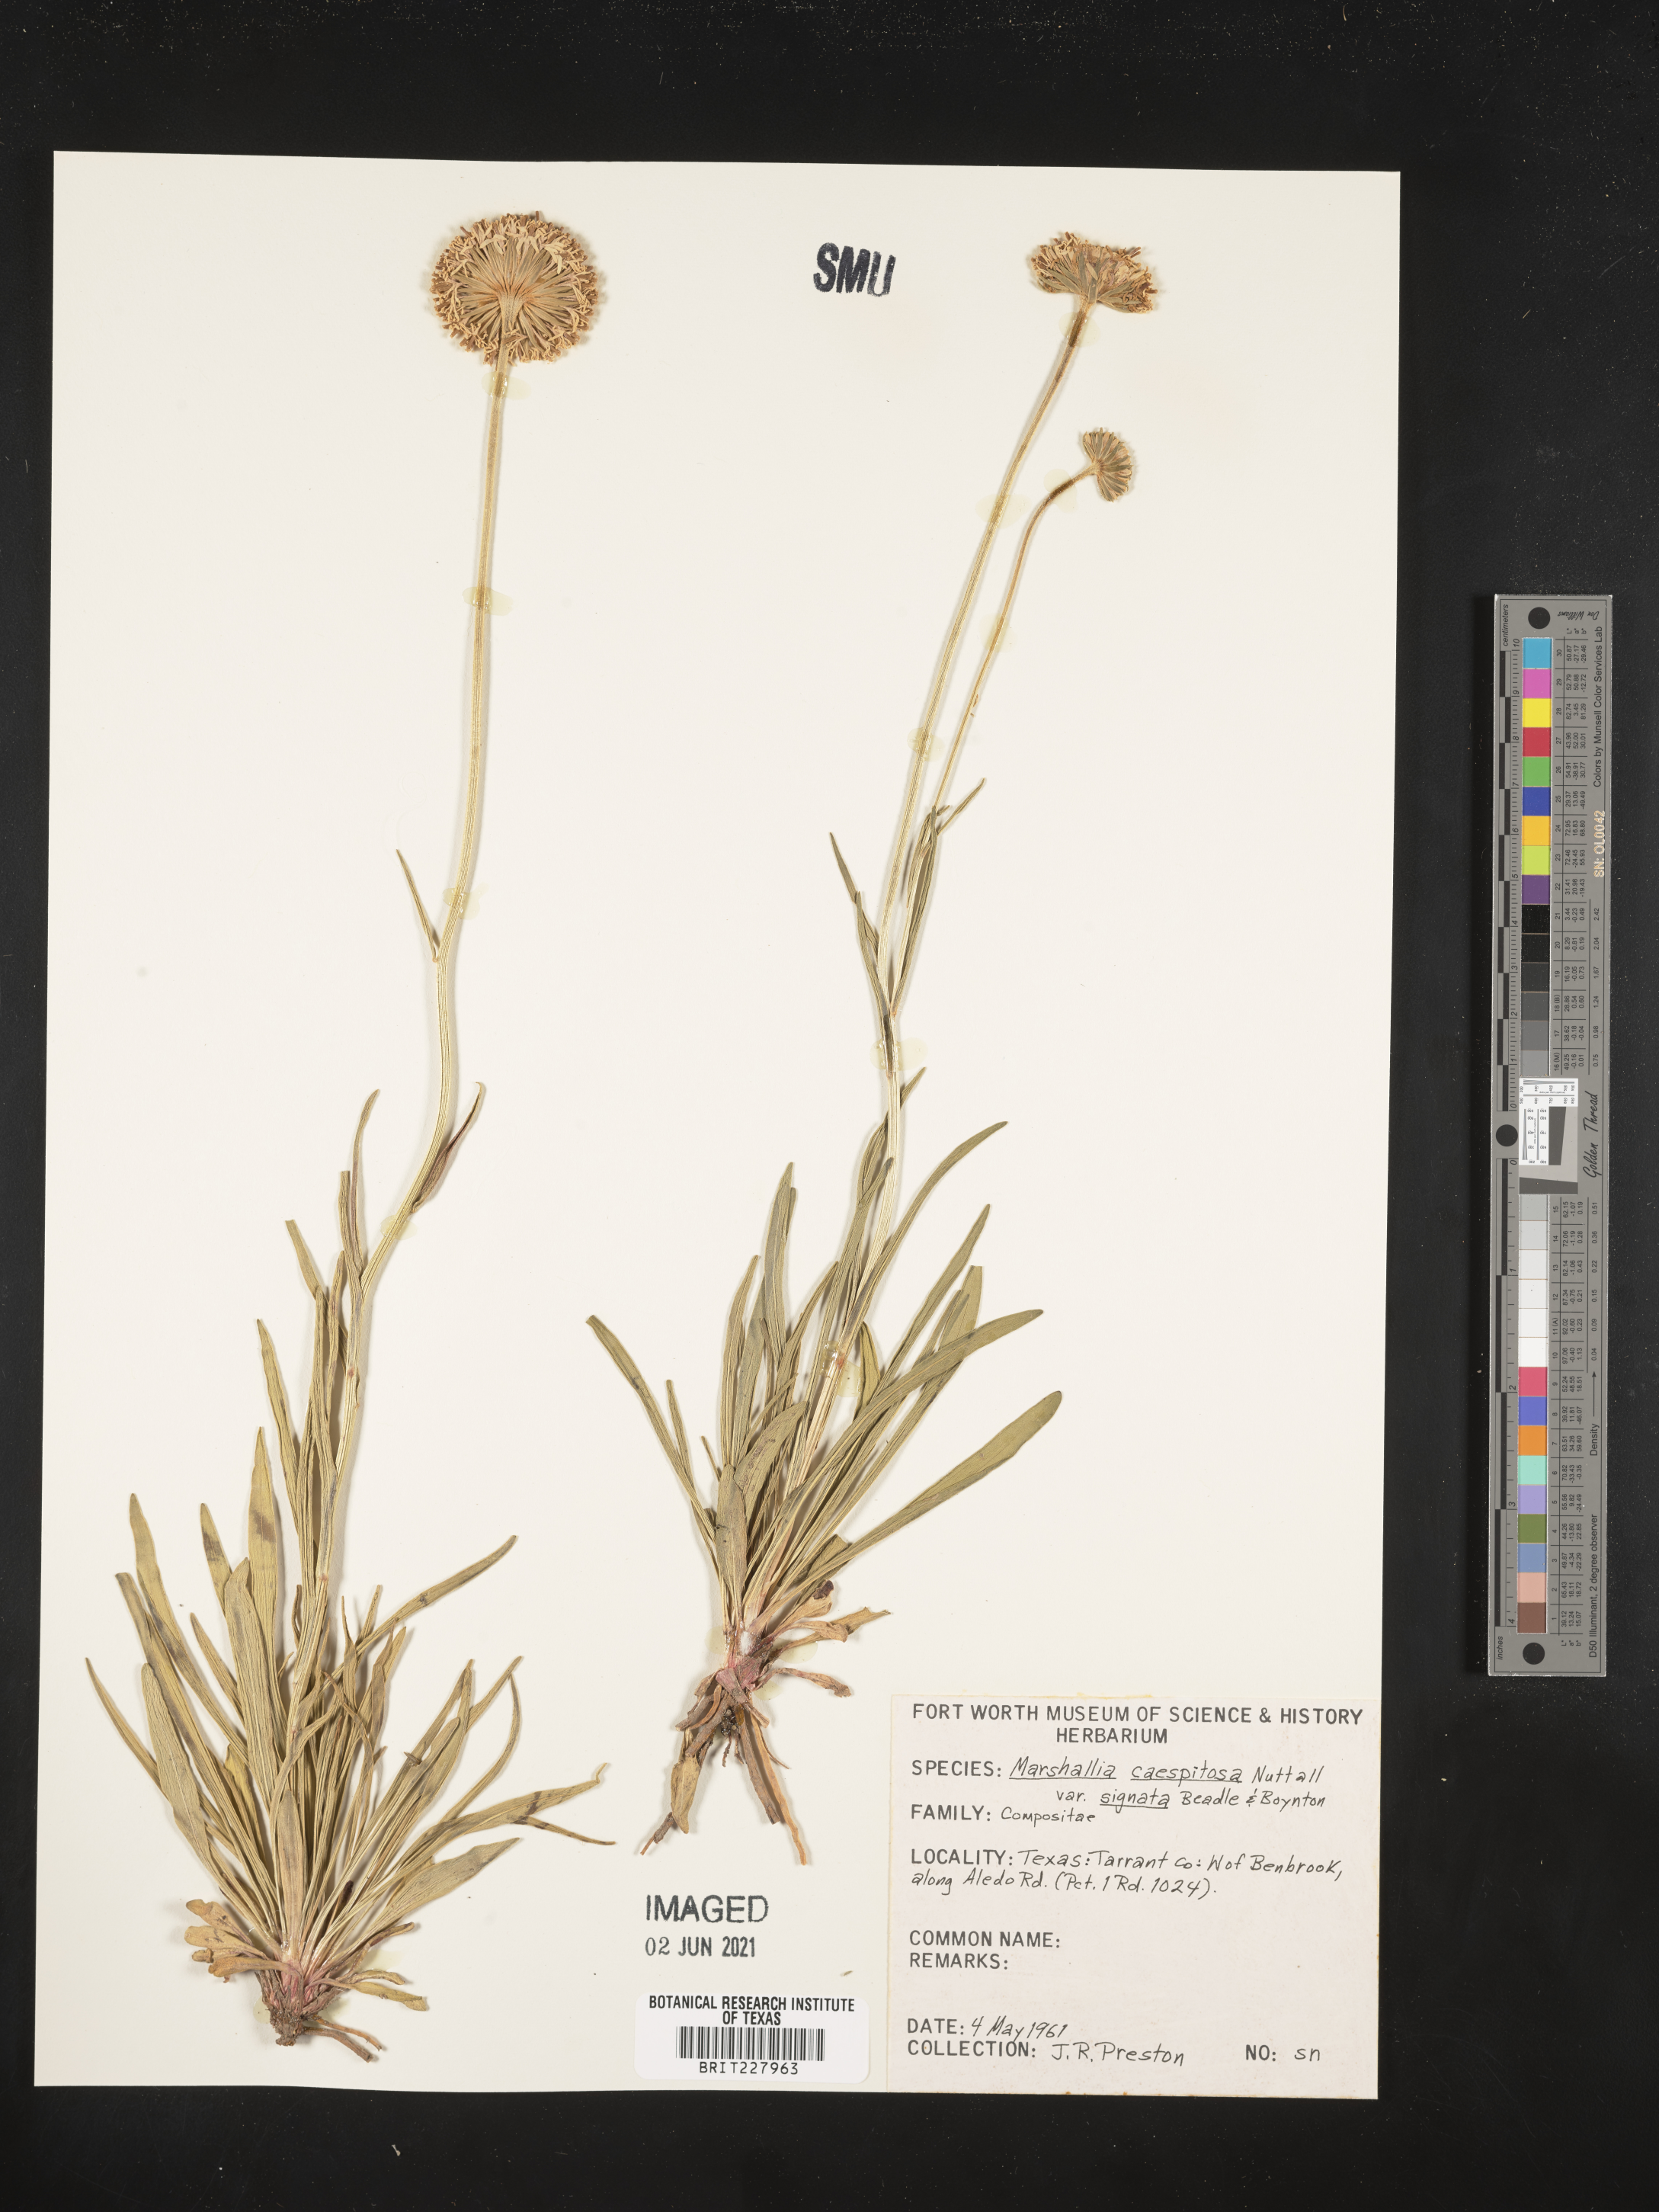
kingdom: Plantae
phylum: Tracheophyta
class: Magnoliopsida
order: Asterales
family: Asteraceae
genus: Marshallia
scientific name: Marshallia caespitosa
